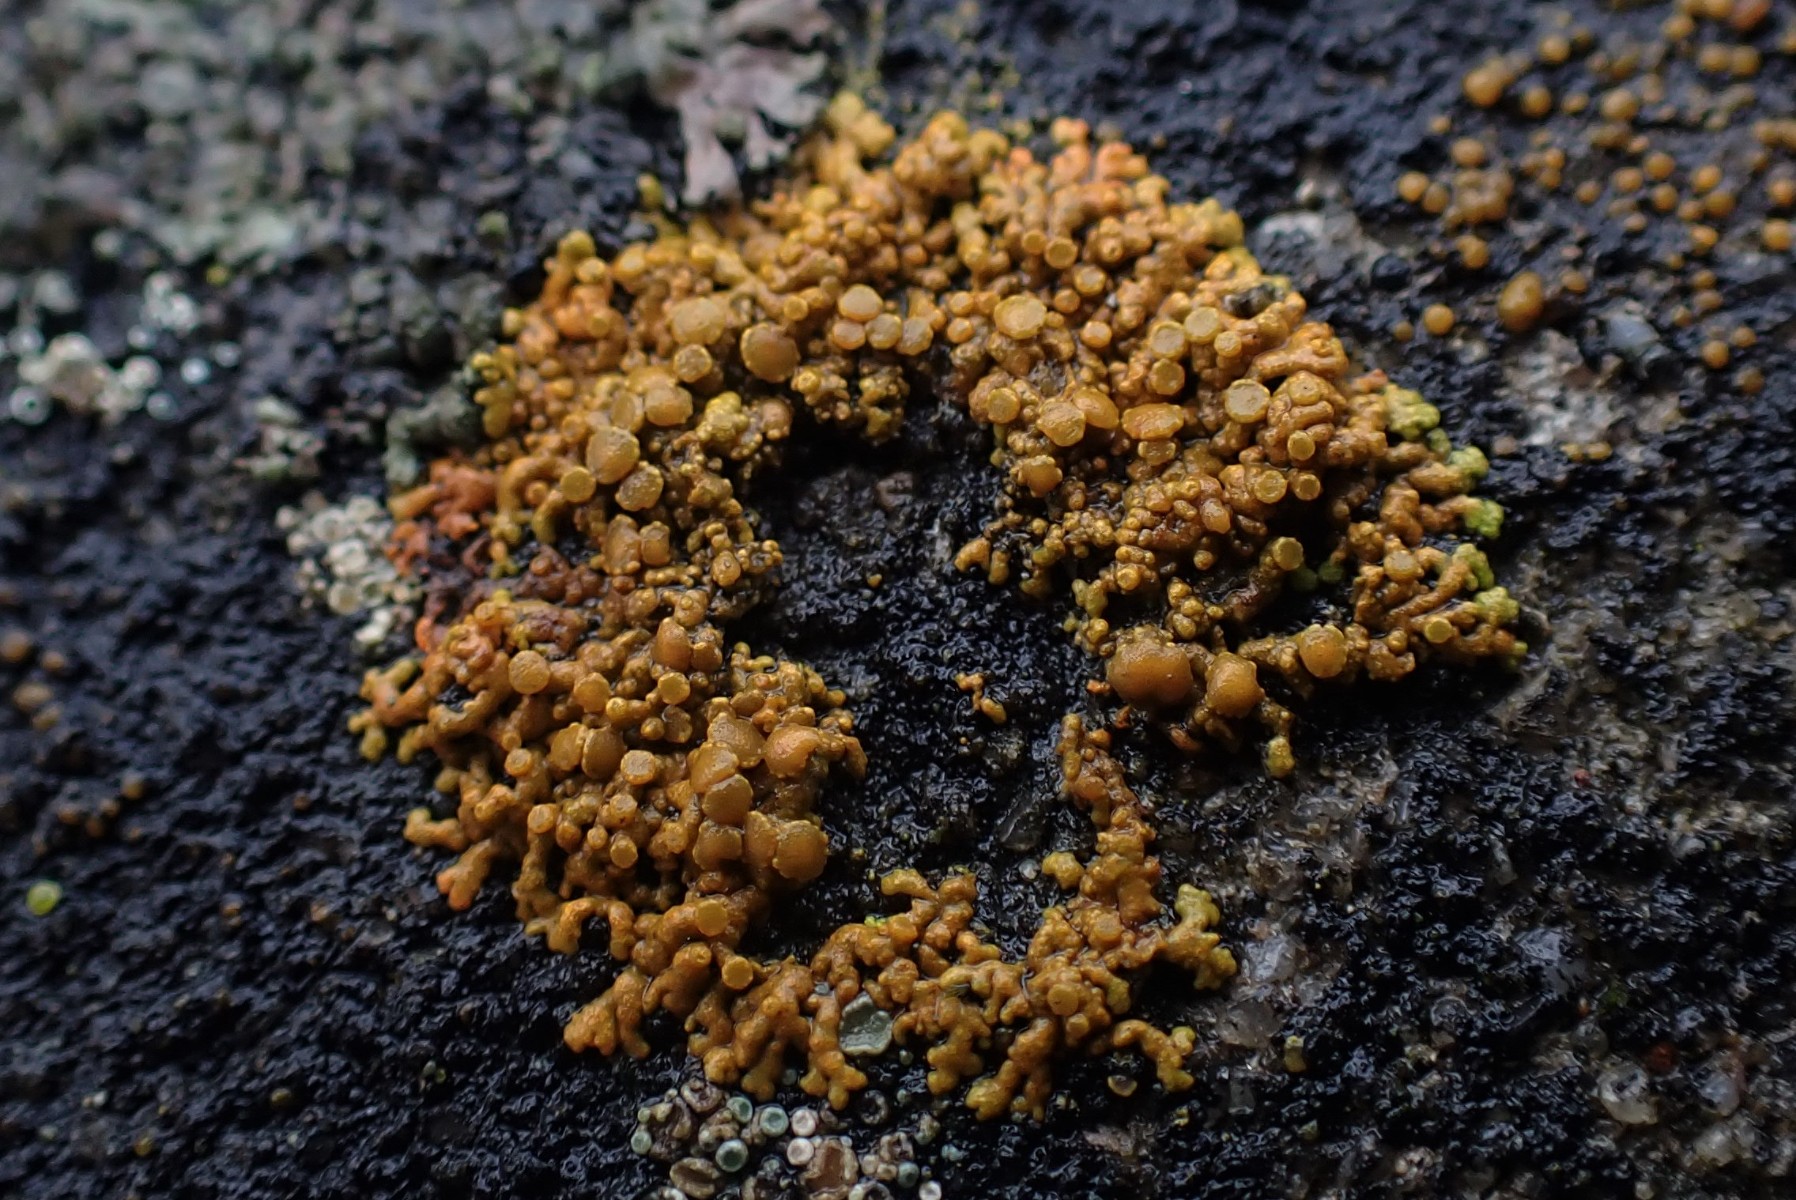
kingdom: Fungi
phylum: Ascomycota
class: Lecanoromycetes
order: Teloschistales
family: Teloschistaceae
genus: Xanthoria
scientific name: Xanthoria elegans
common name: fjeld-væggelav
